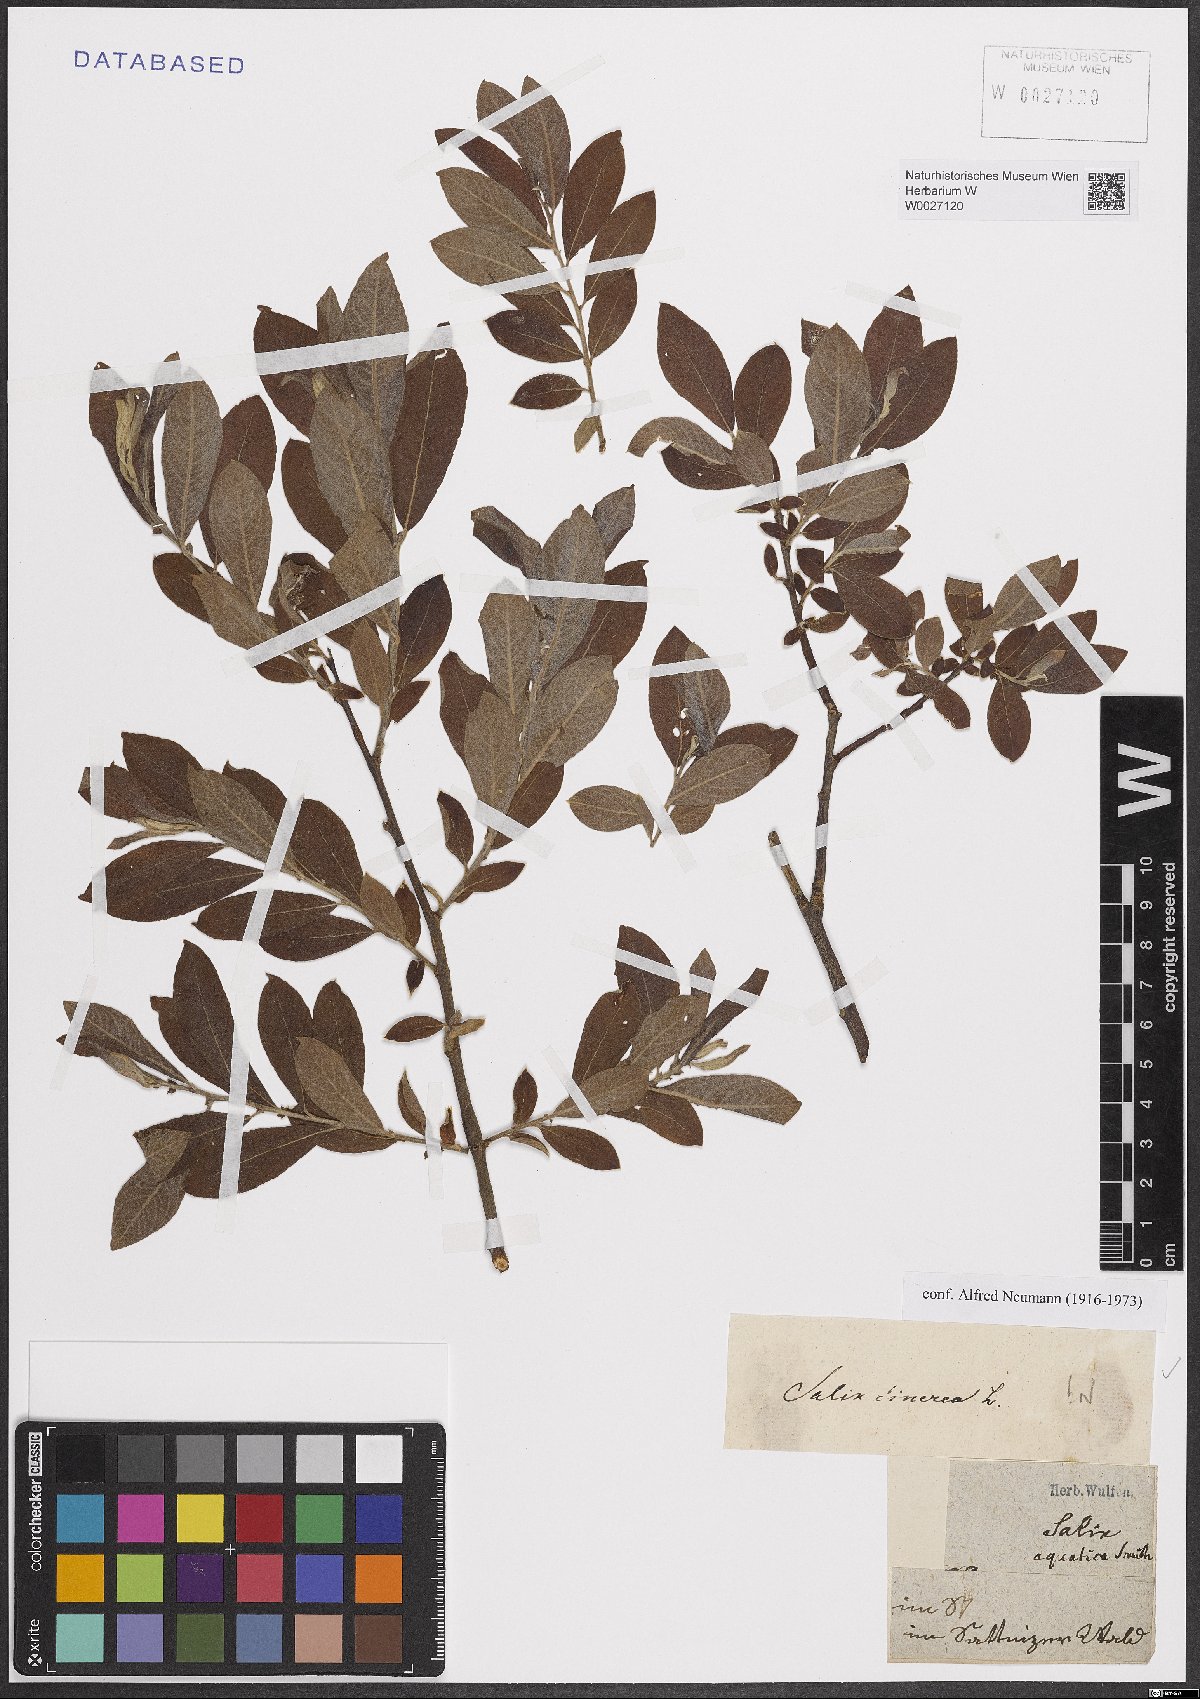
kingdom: Plantae
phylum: Tracheophyta
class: Magnoliopsida
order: Malpighiales
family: Salicaceae
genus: Salix
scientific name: Salix cinerea
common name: Common sallow
